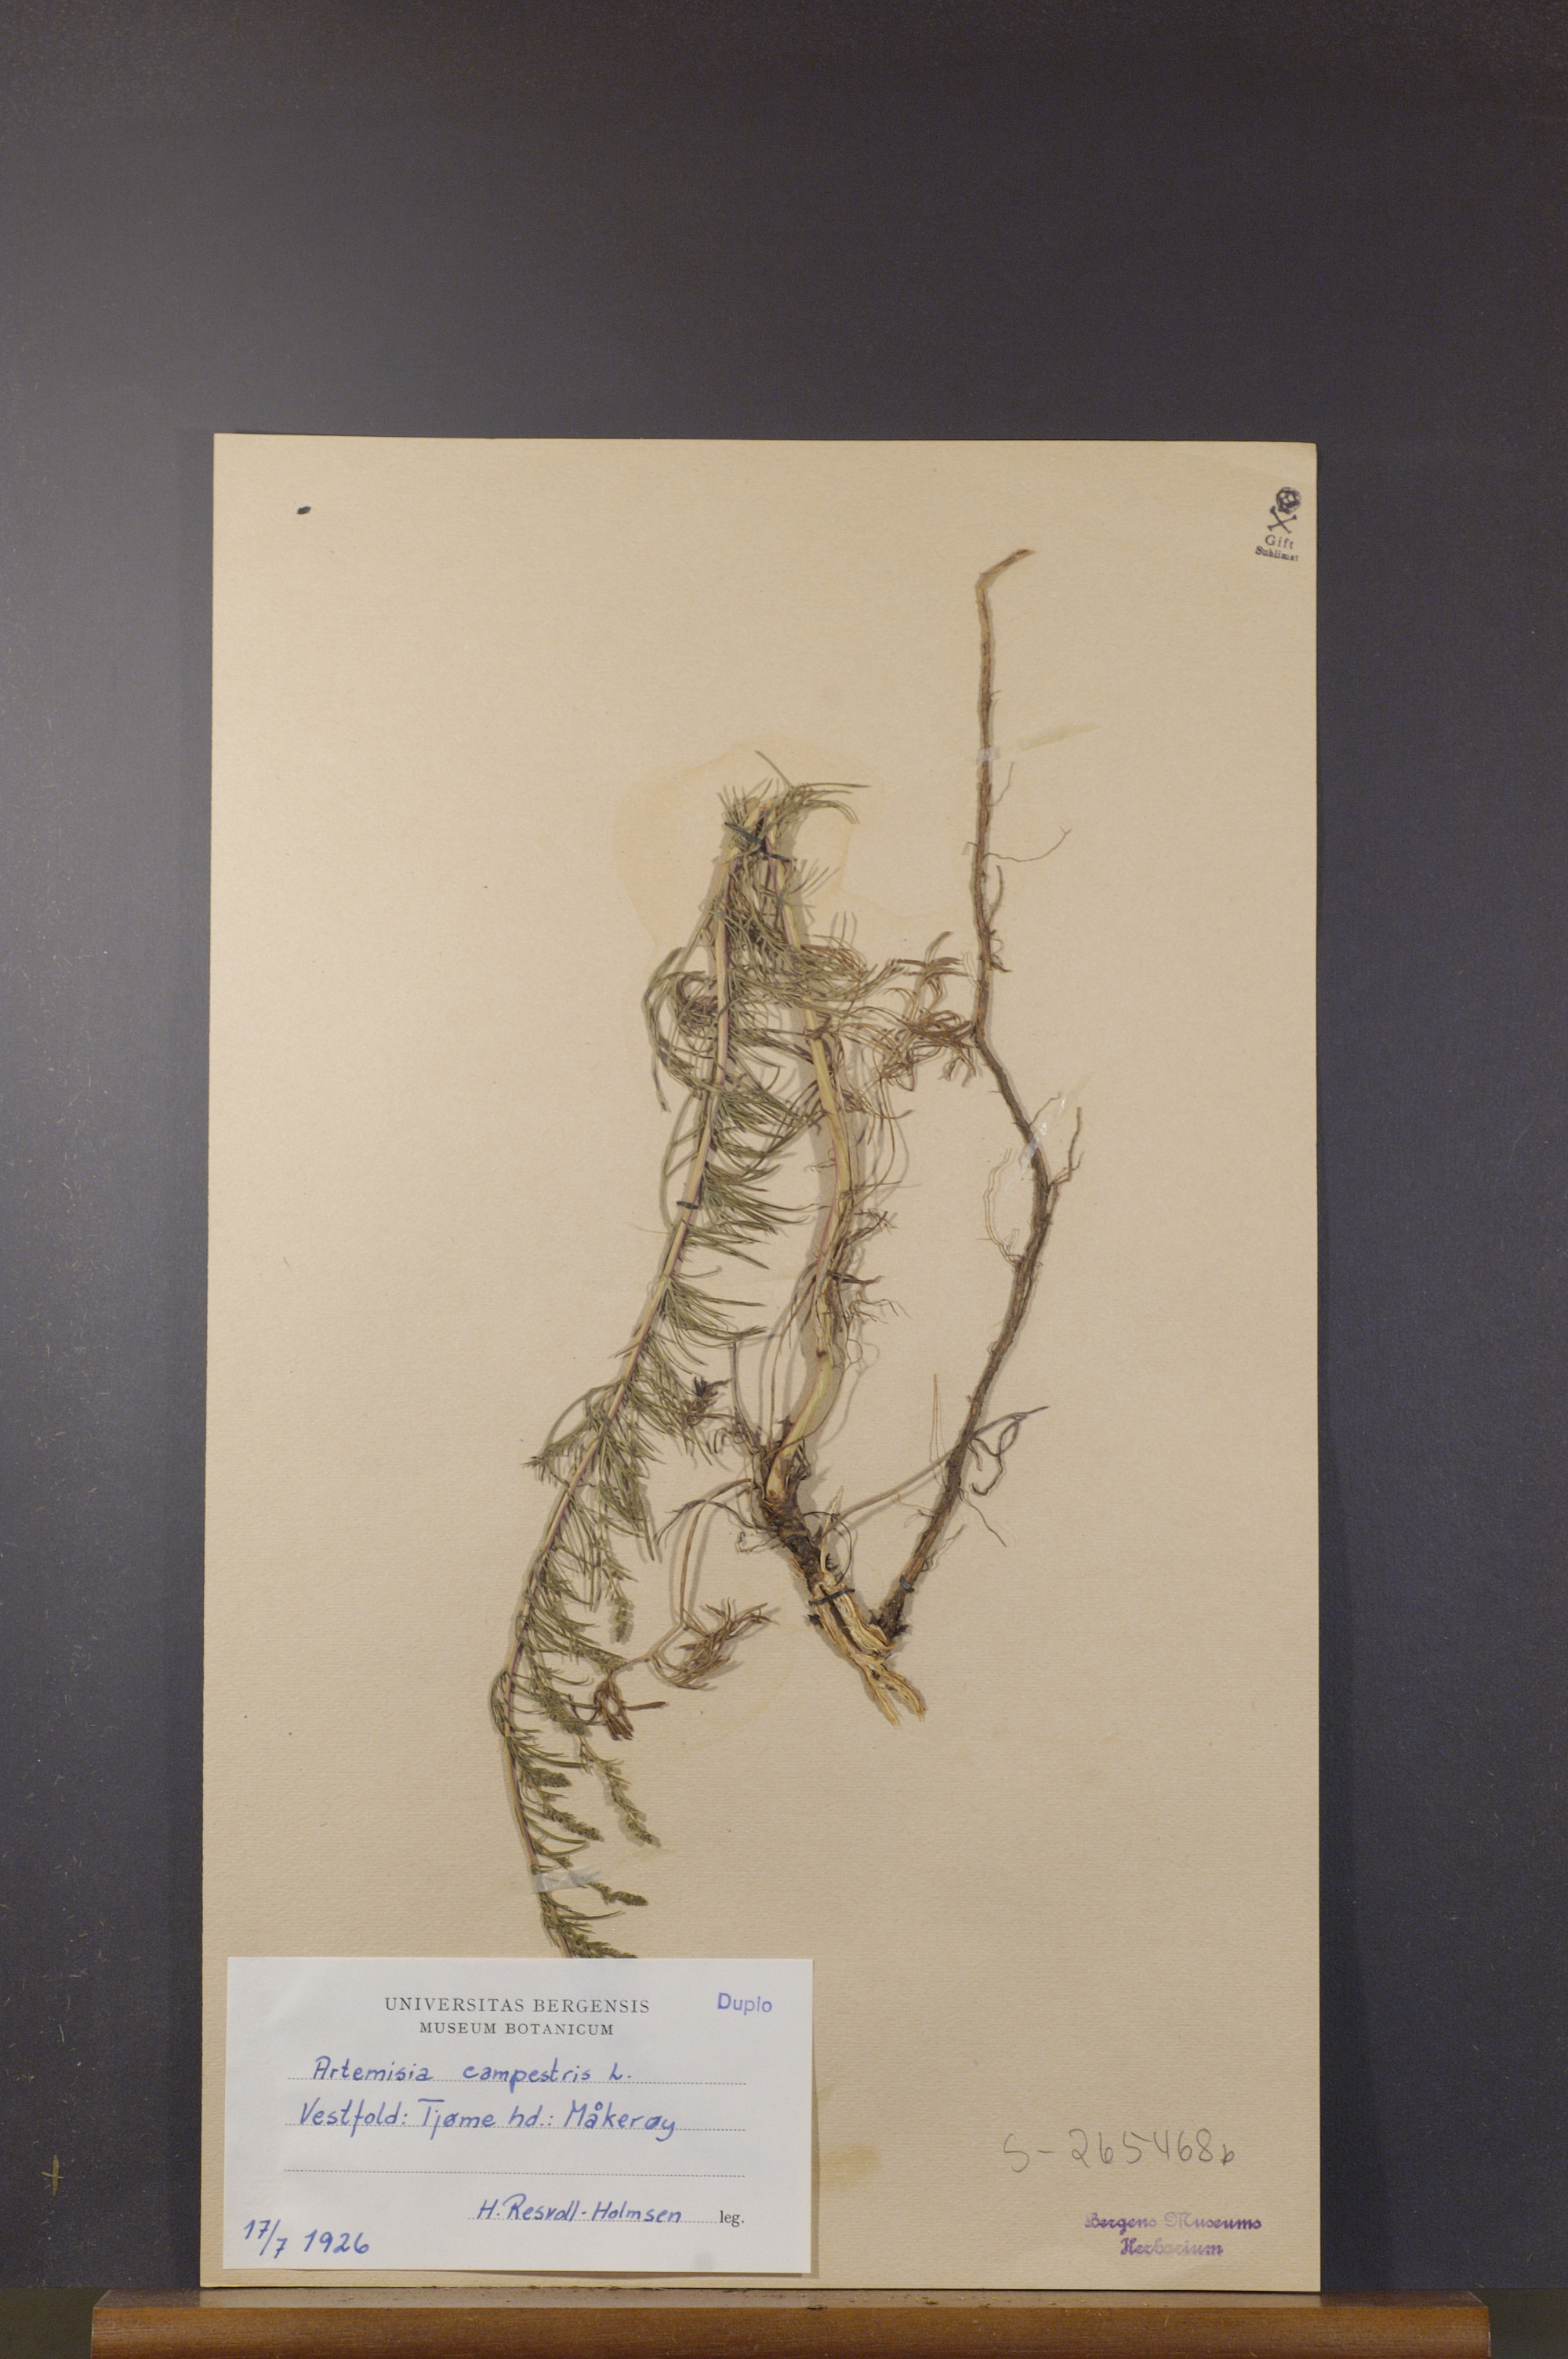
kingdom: Plantae
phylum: Tracheophyta
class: Magnoliopsida
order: Asterales
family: Asteraceae
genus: Artemisia
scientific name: Artemisia campestris
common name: Field wormwood
